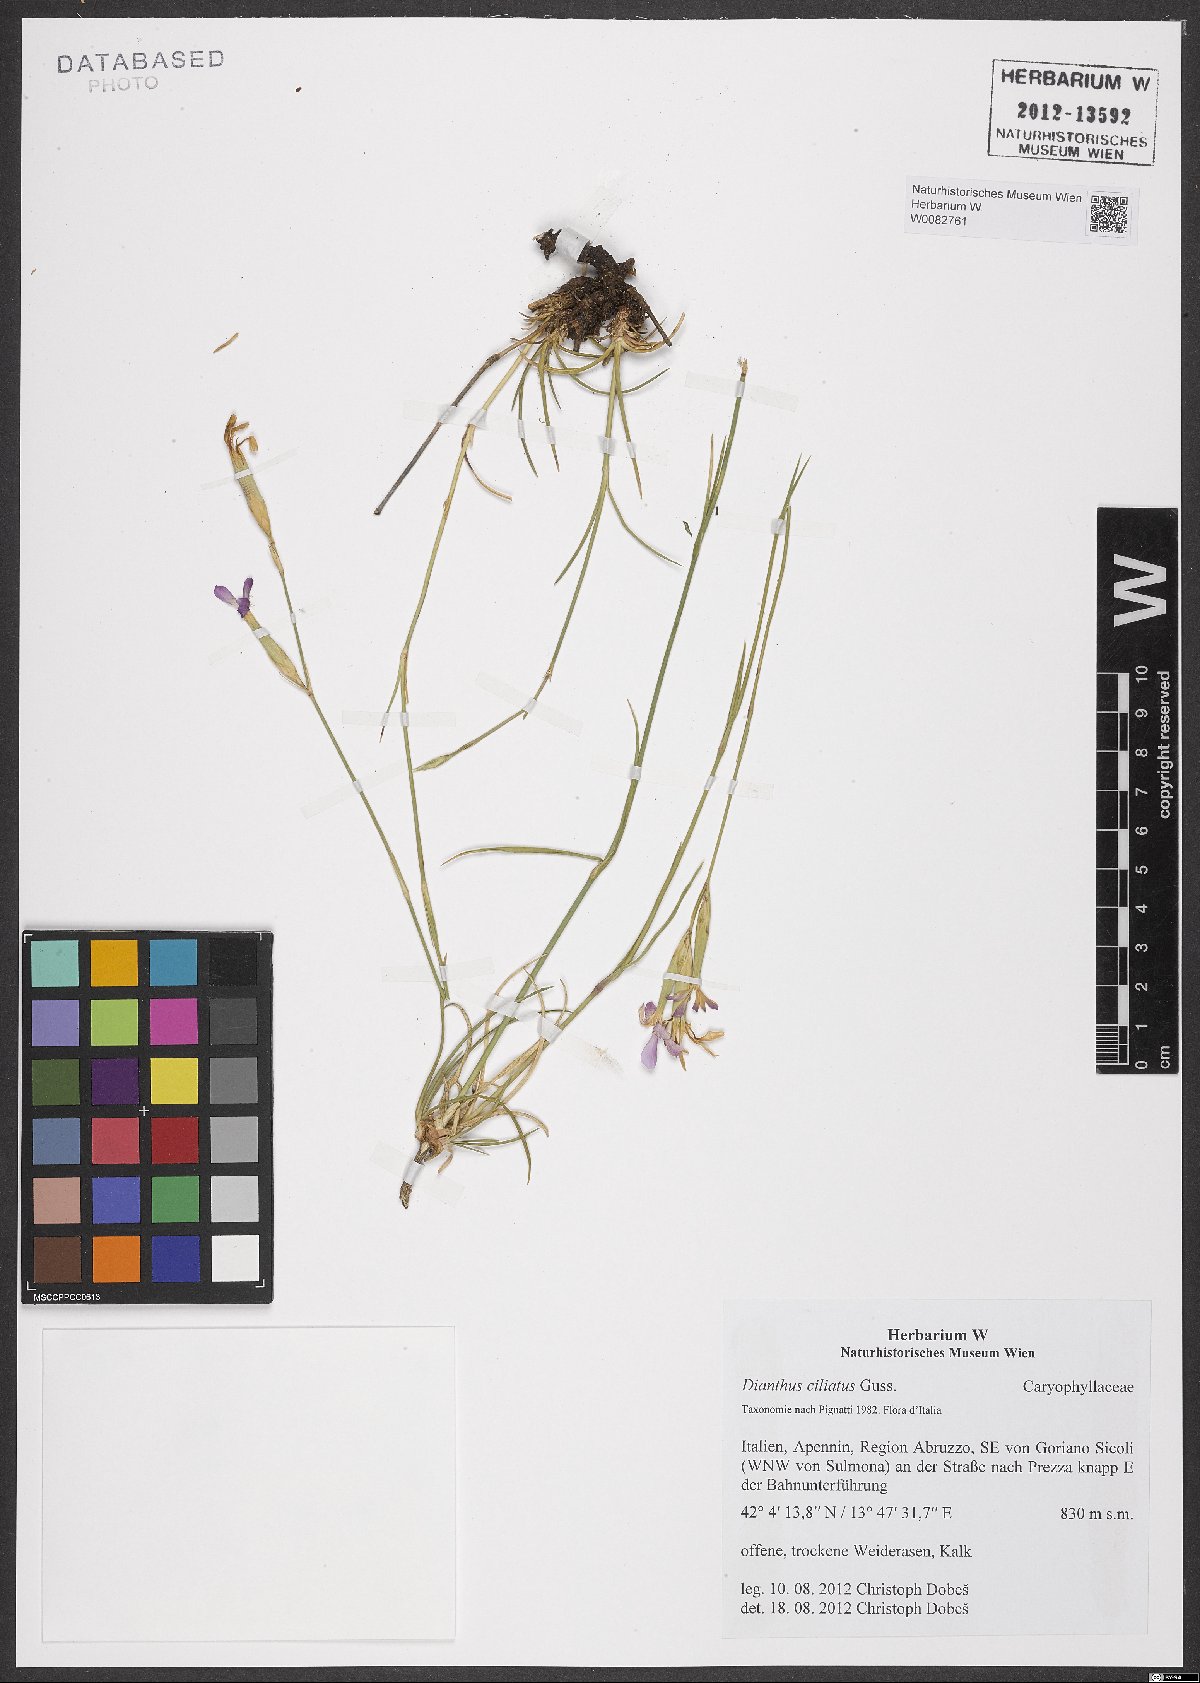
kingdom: Plantae
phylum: Tracheophyta
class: Magnoliopsida
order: Caryophyllales
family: Caryophyllaceae
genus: Dianthus
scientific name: Dianthus ciliatus
